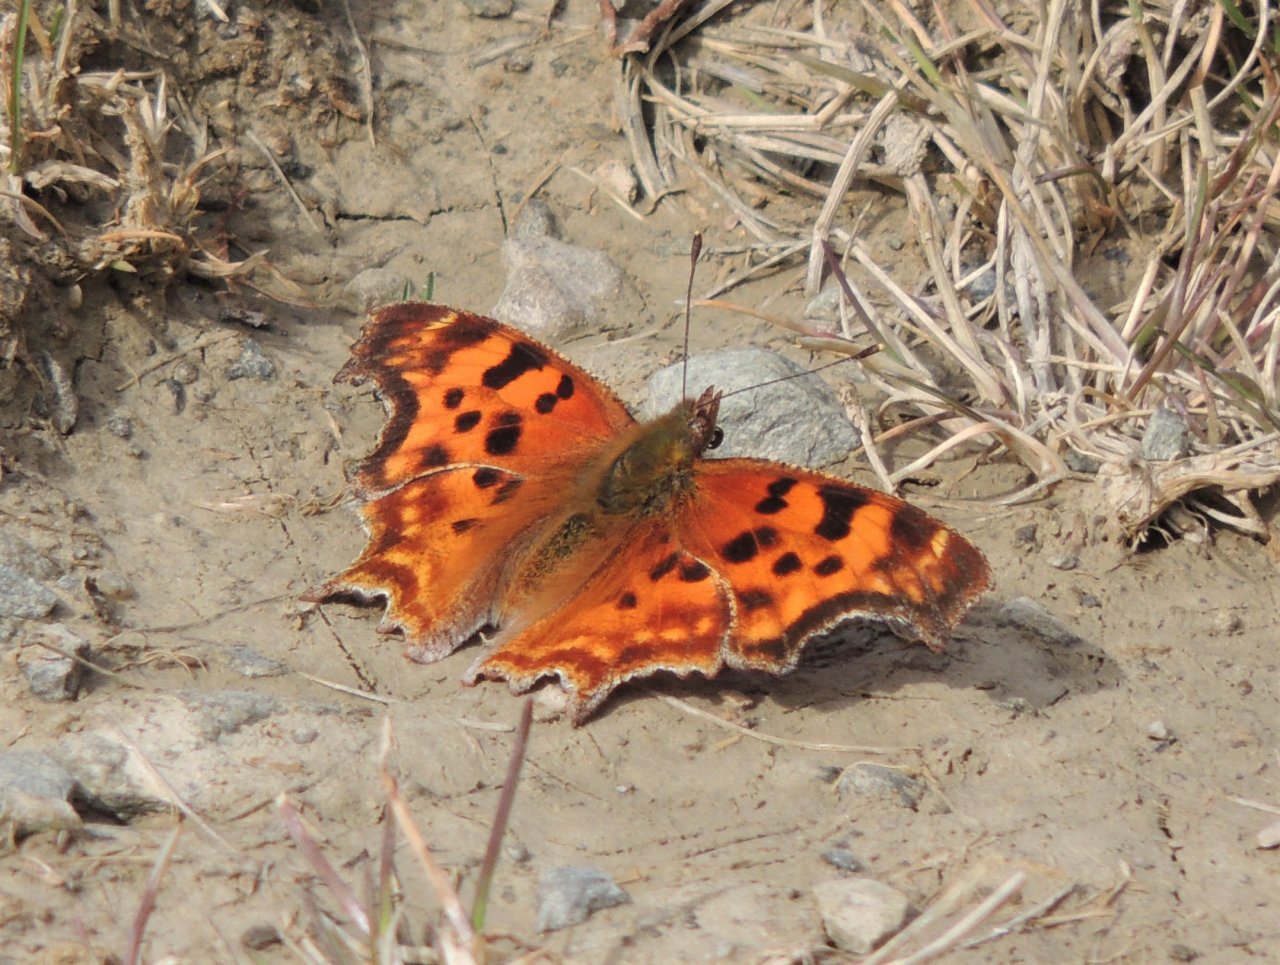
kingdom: Animalia
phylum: Arthropoda
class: Insecta
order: Lepidoptera
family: Nymphalidae
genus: Polygonia
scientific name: Polygonia satyrus
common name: Satyr Comma
